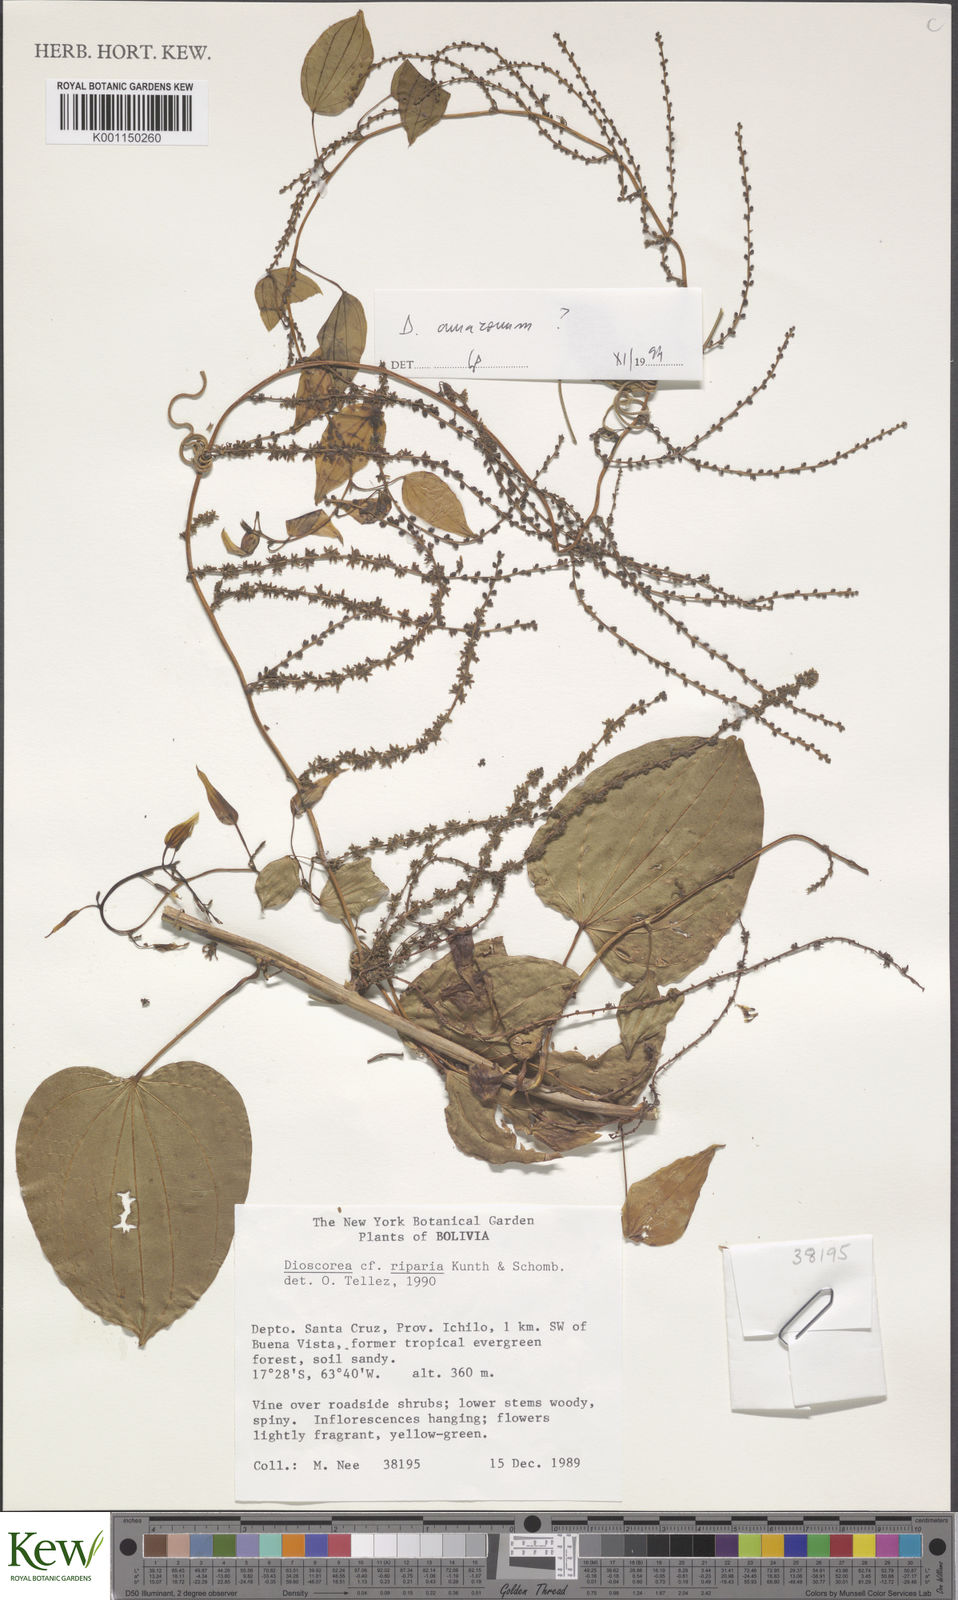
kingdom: Plantae
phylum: Tracheophyta
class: Liliopsida
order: Dioscoreales
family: Dioscoreaceae
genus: Dioscorea
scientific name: Dioscorea chondrocarpa
